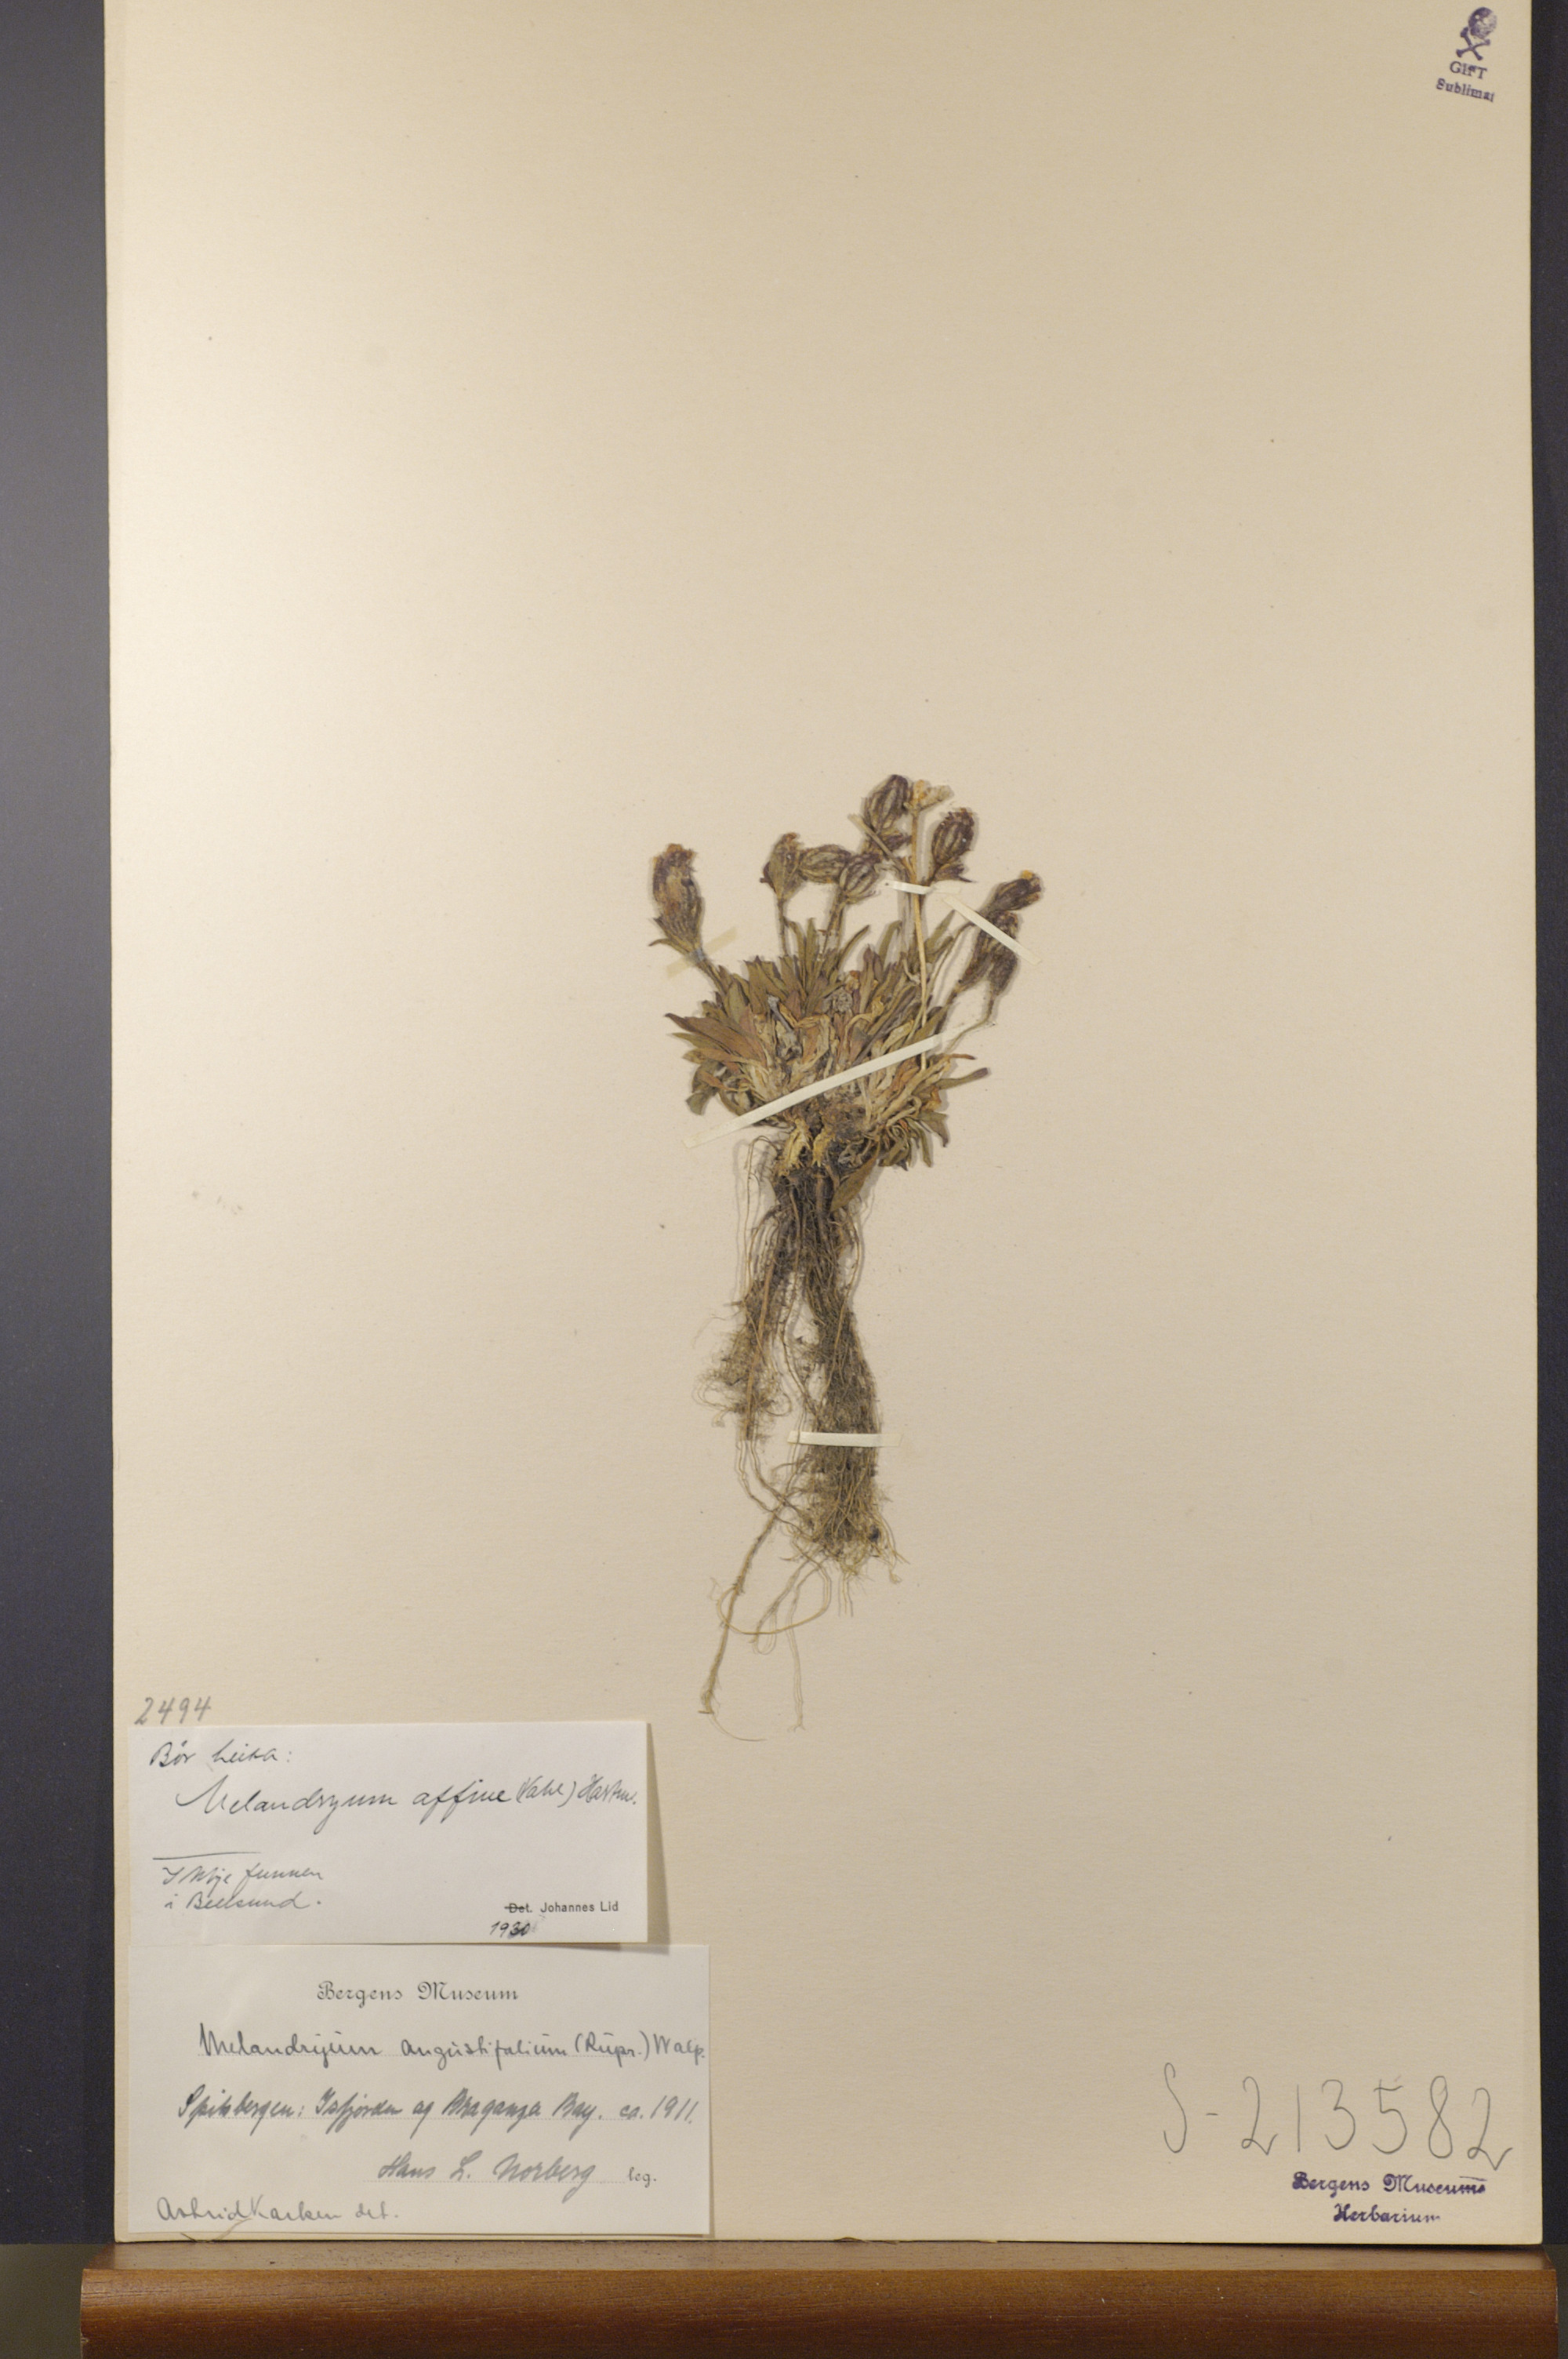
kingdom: Plantae
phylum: Tracheophyta
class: Magnoliopsida
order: Caryophyllales
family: Caryophyllaceae
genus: Silene
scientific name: Silene involucrata
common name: Greater arctic campion
